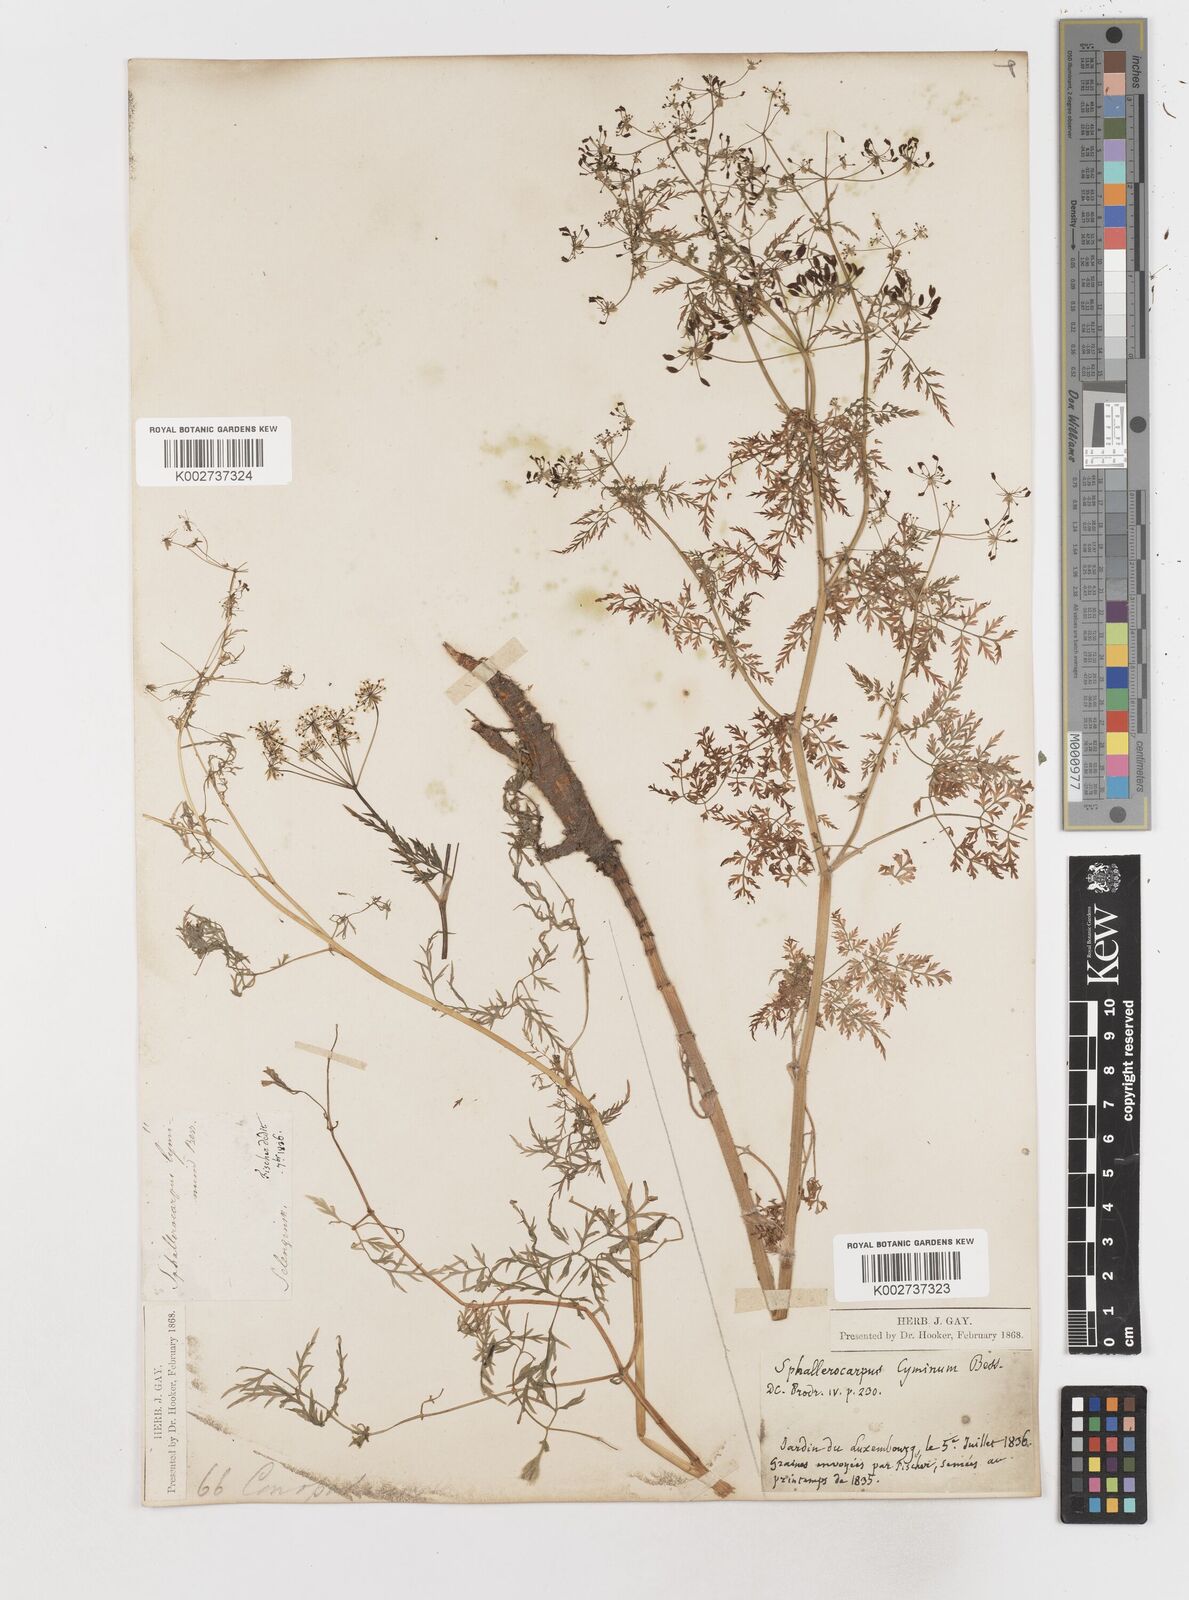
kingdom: Plantae
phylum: Tracheophyta
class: Magnoliopsida
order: Apiales
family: Apiaceae
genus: Sphallerocarpus
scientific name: Sphallerocarpus gracilis
